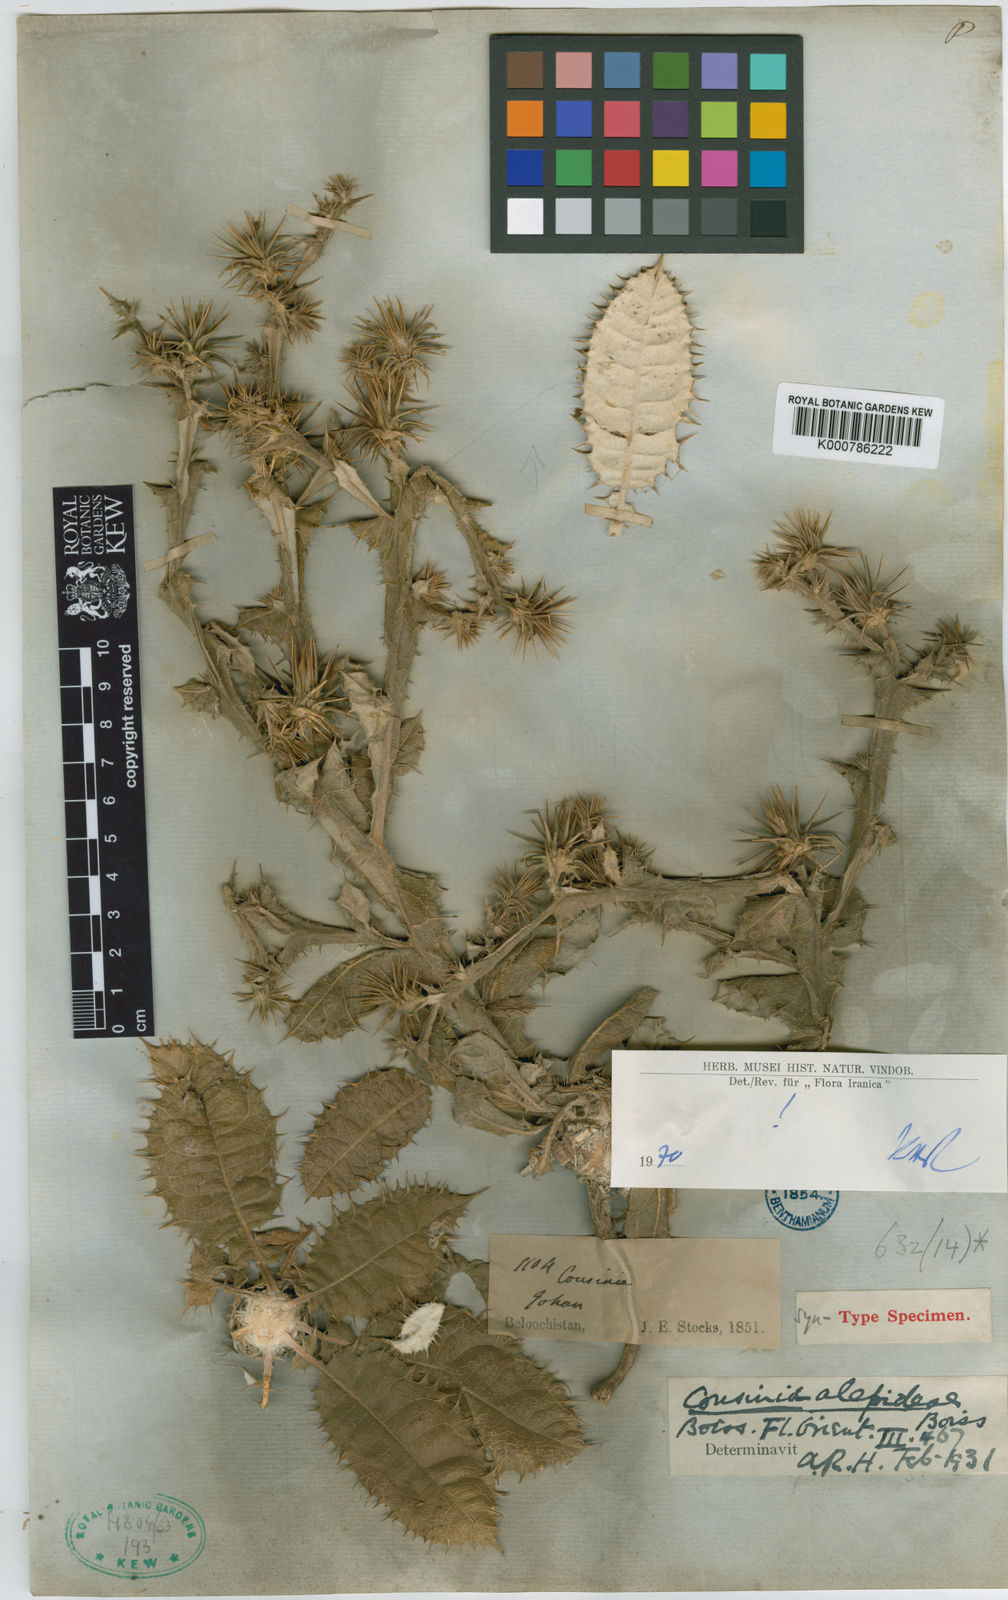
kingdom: Plantae
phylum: Tracheophyta
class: Magnoliopsida
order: Asterales
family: Asteraceae
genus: Cousinia
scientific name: Cousinia alepideae
